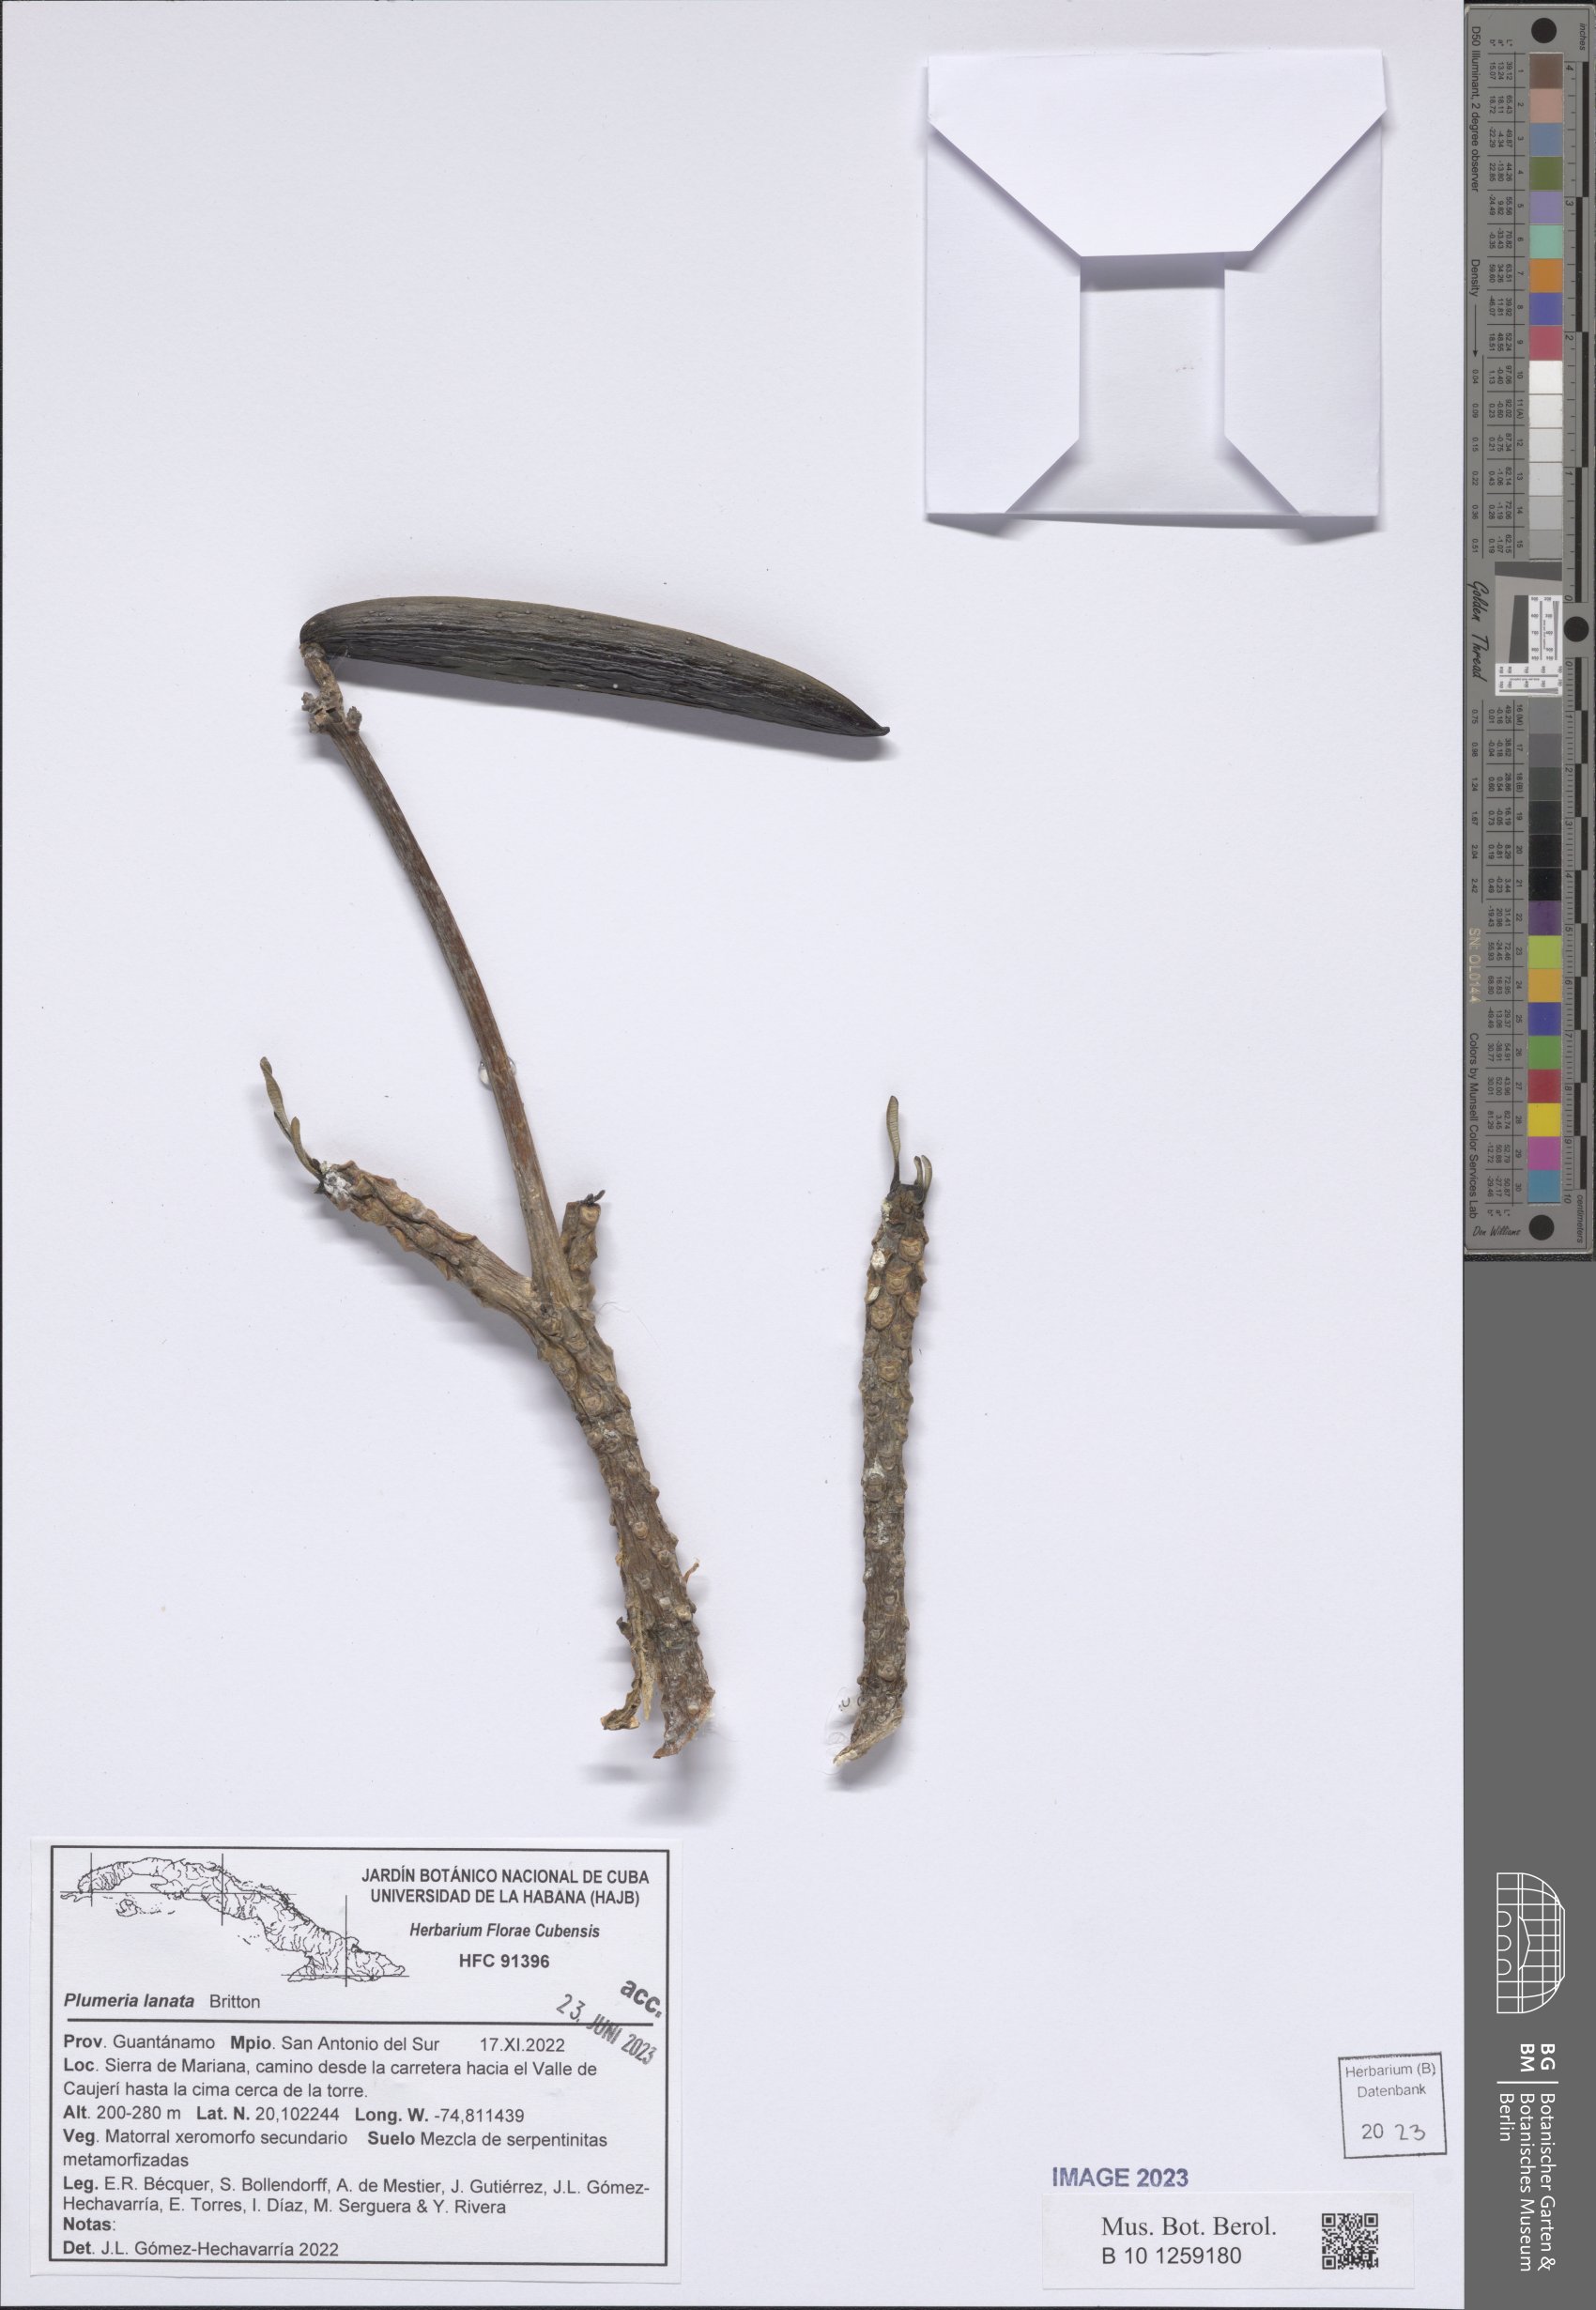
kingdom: Plantae
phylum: Tracheophyta
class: Magnoliopsida
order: Gentianales
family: Apocynaceae
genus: Plumeria
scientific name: Plumeria lanata
